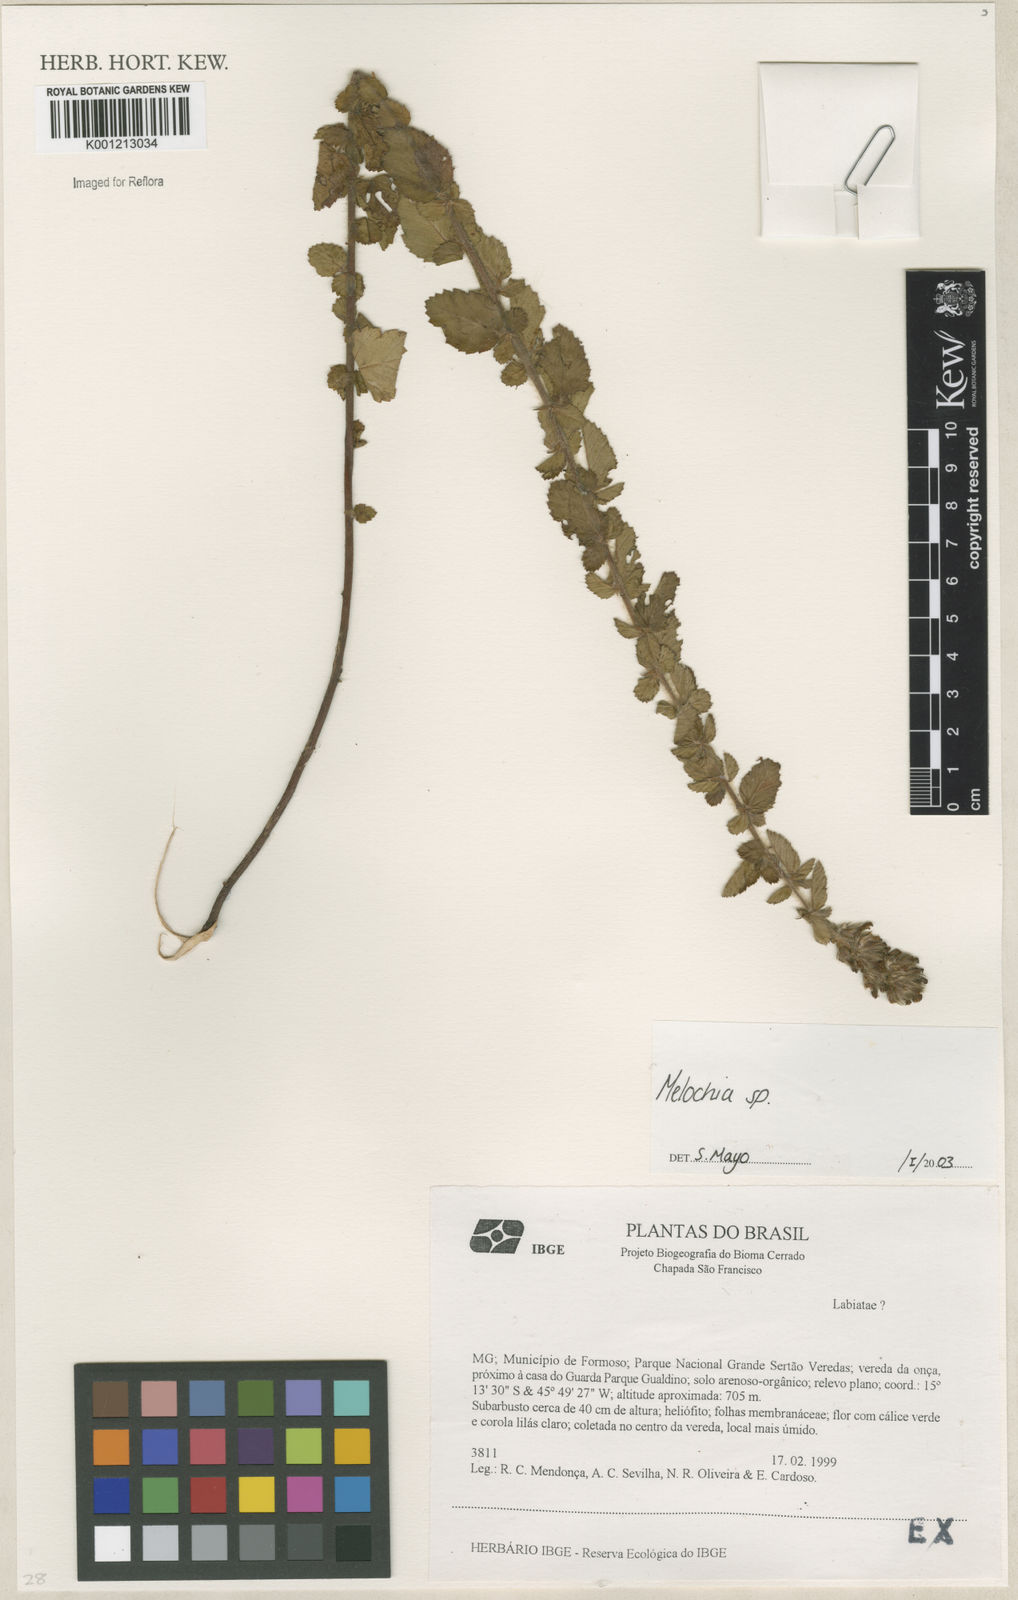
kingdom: Plantae
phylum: Tracheophyta
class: Magnoliopsida
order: Malvales
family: Malvaceae
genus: Melochia
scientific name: Melochia
